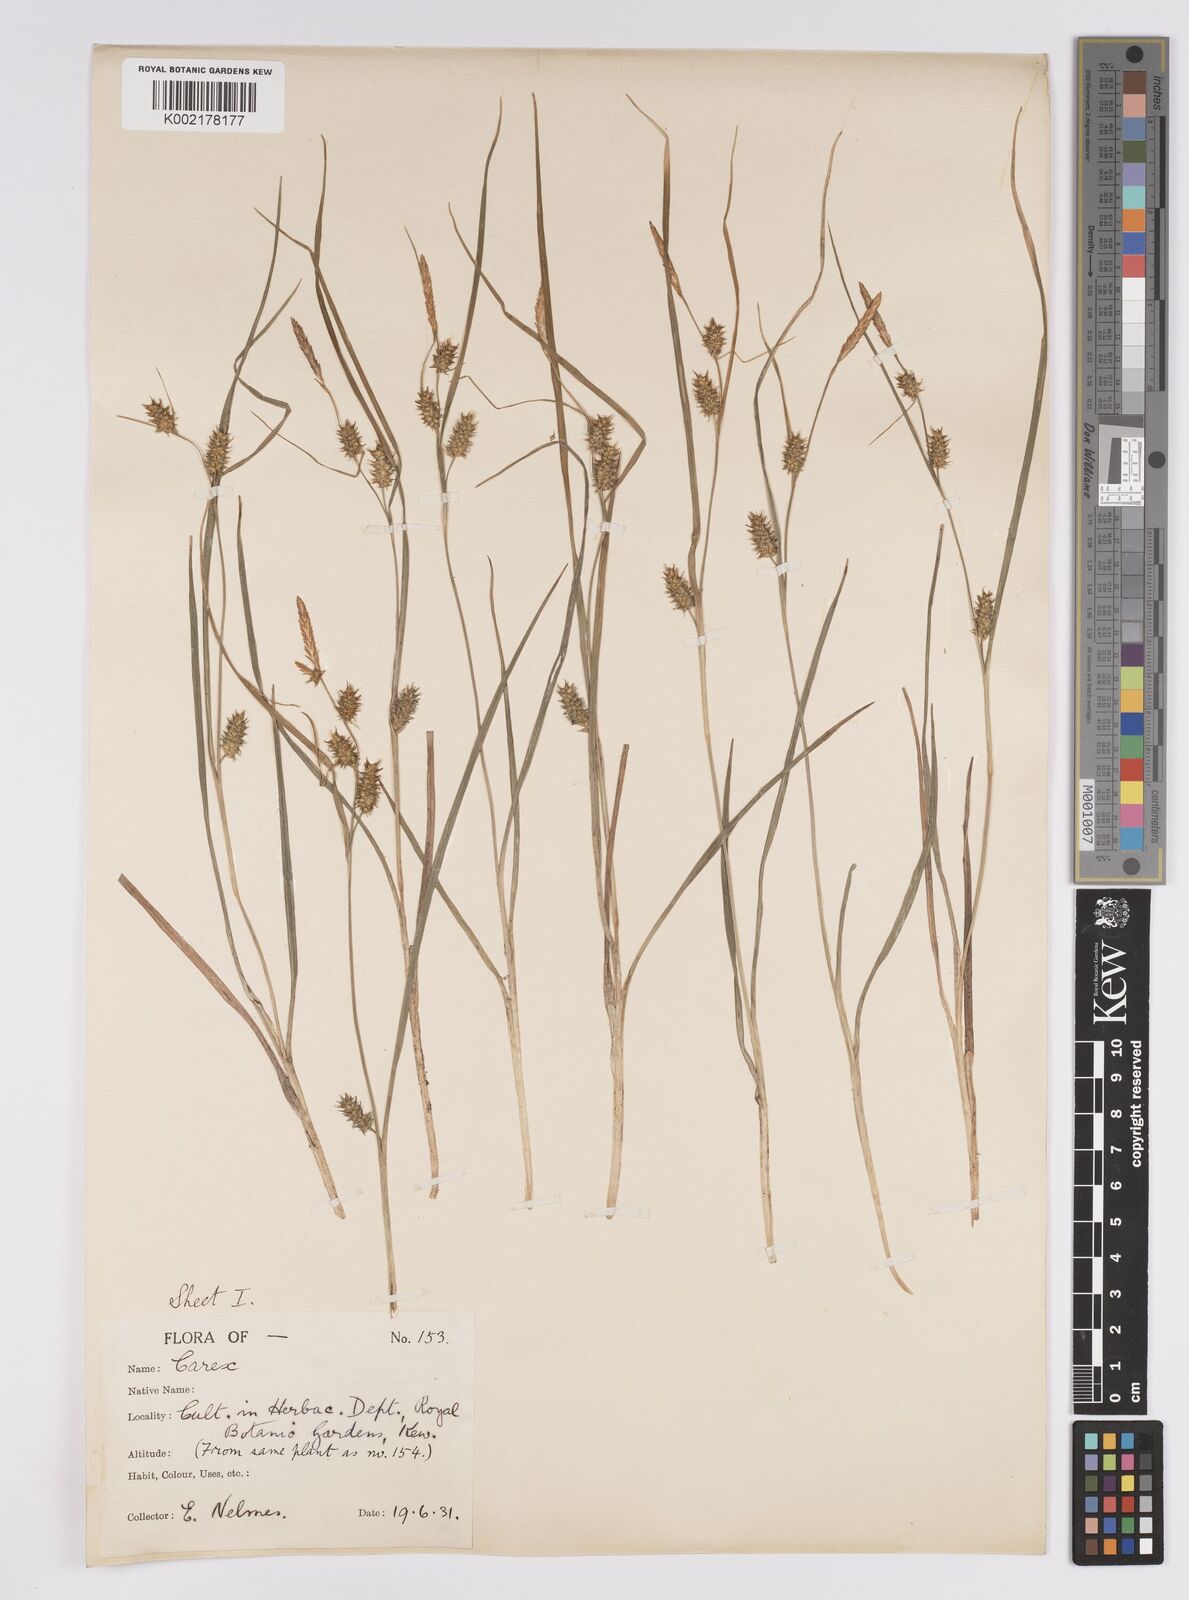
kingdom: Plantae
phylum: Tracheophyta
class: Liliopsida
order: Poales
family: Cyperaceae
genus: Carex
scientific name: Carex demissa
